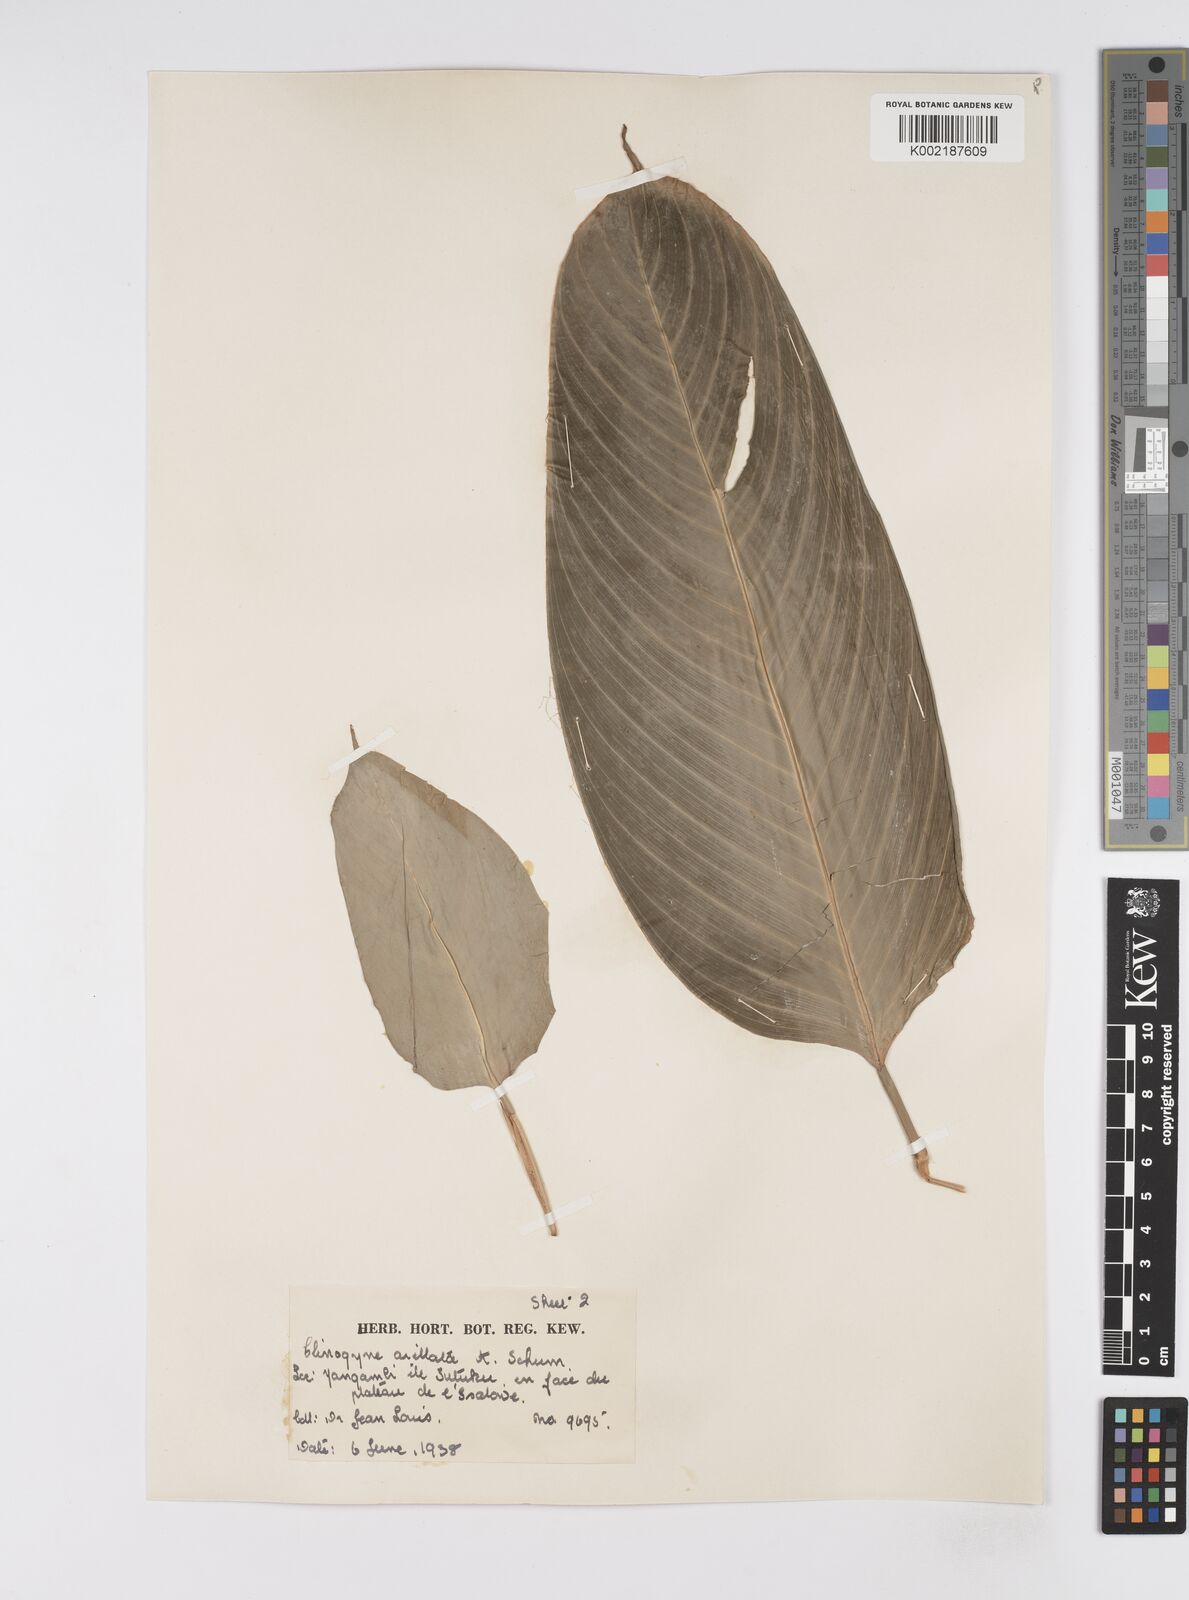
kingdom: Plantae
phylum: Tracheophyta
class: Liliopsida
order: Zingiberales
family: Marantaceae
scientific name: Marantaceae
